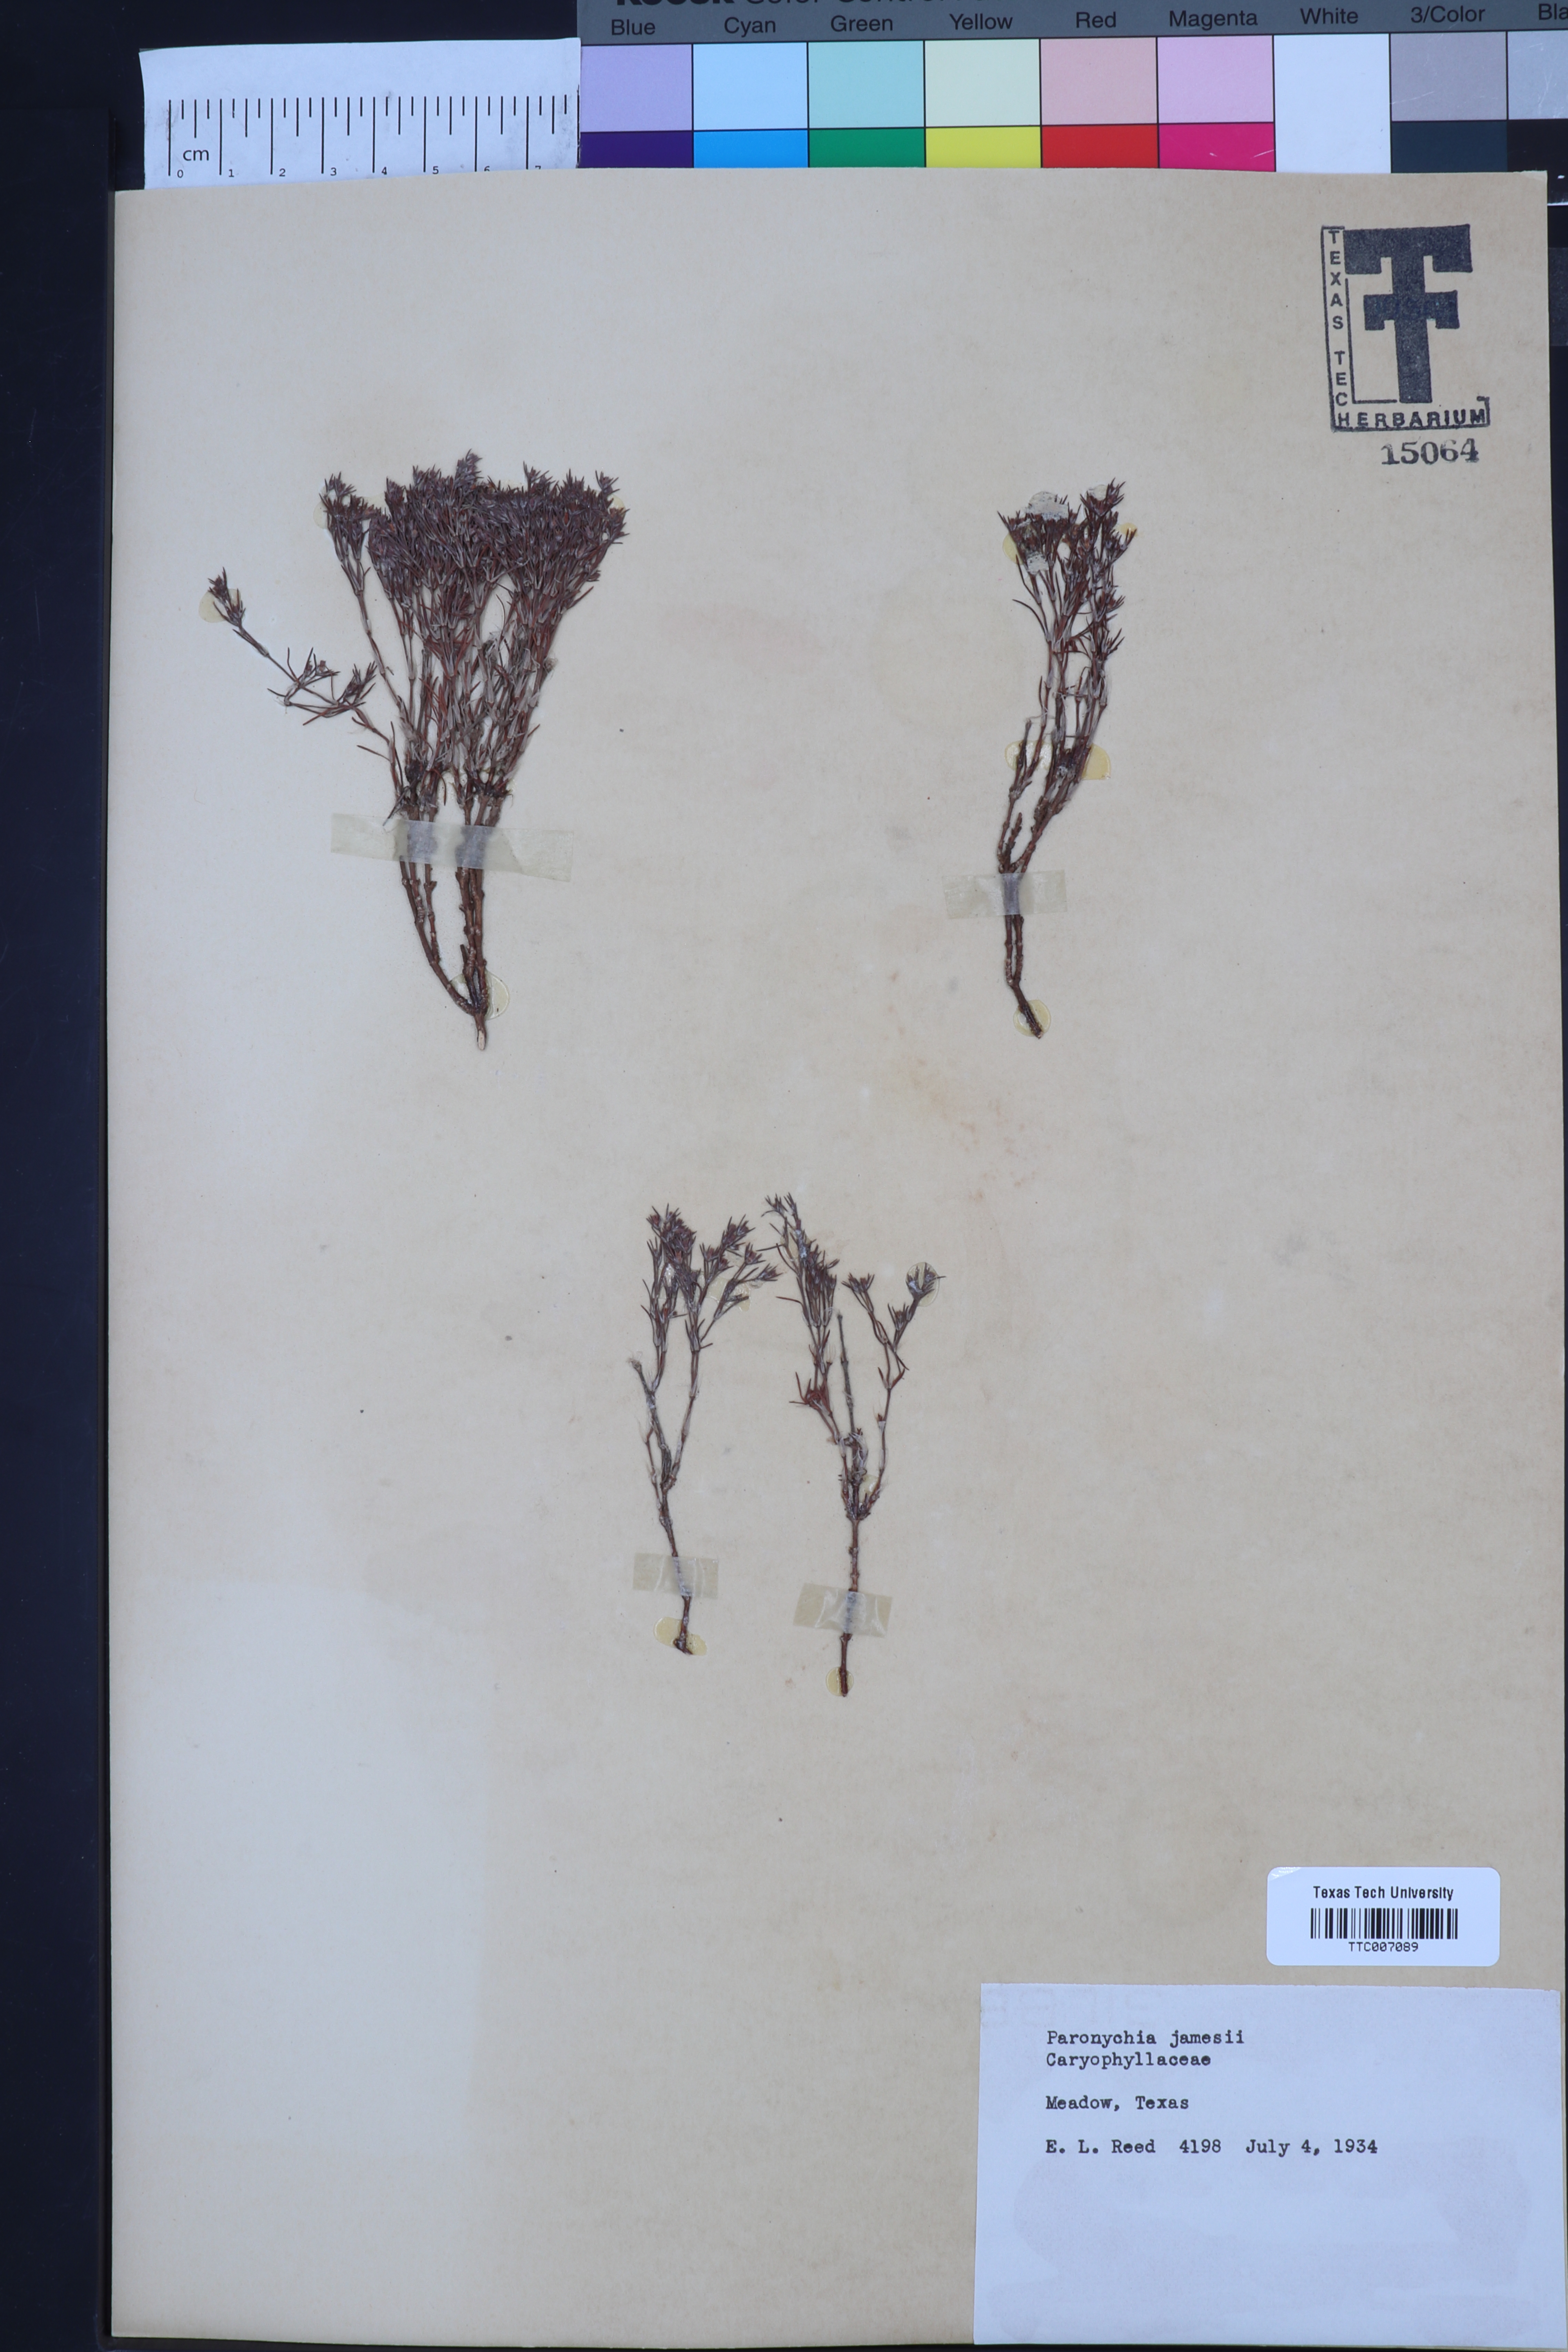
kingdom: Plantae
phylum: Tracheophyta
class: Magnoliopsida
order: Caryophyllales
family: Caryophyllaceae
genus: Paronychia
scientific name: Paronychia jamesii
